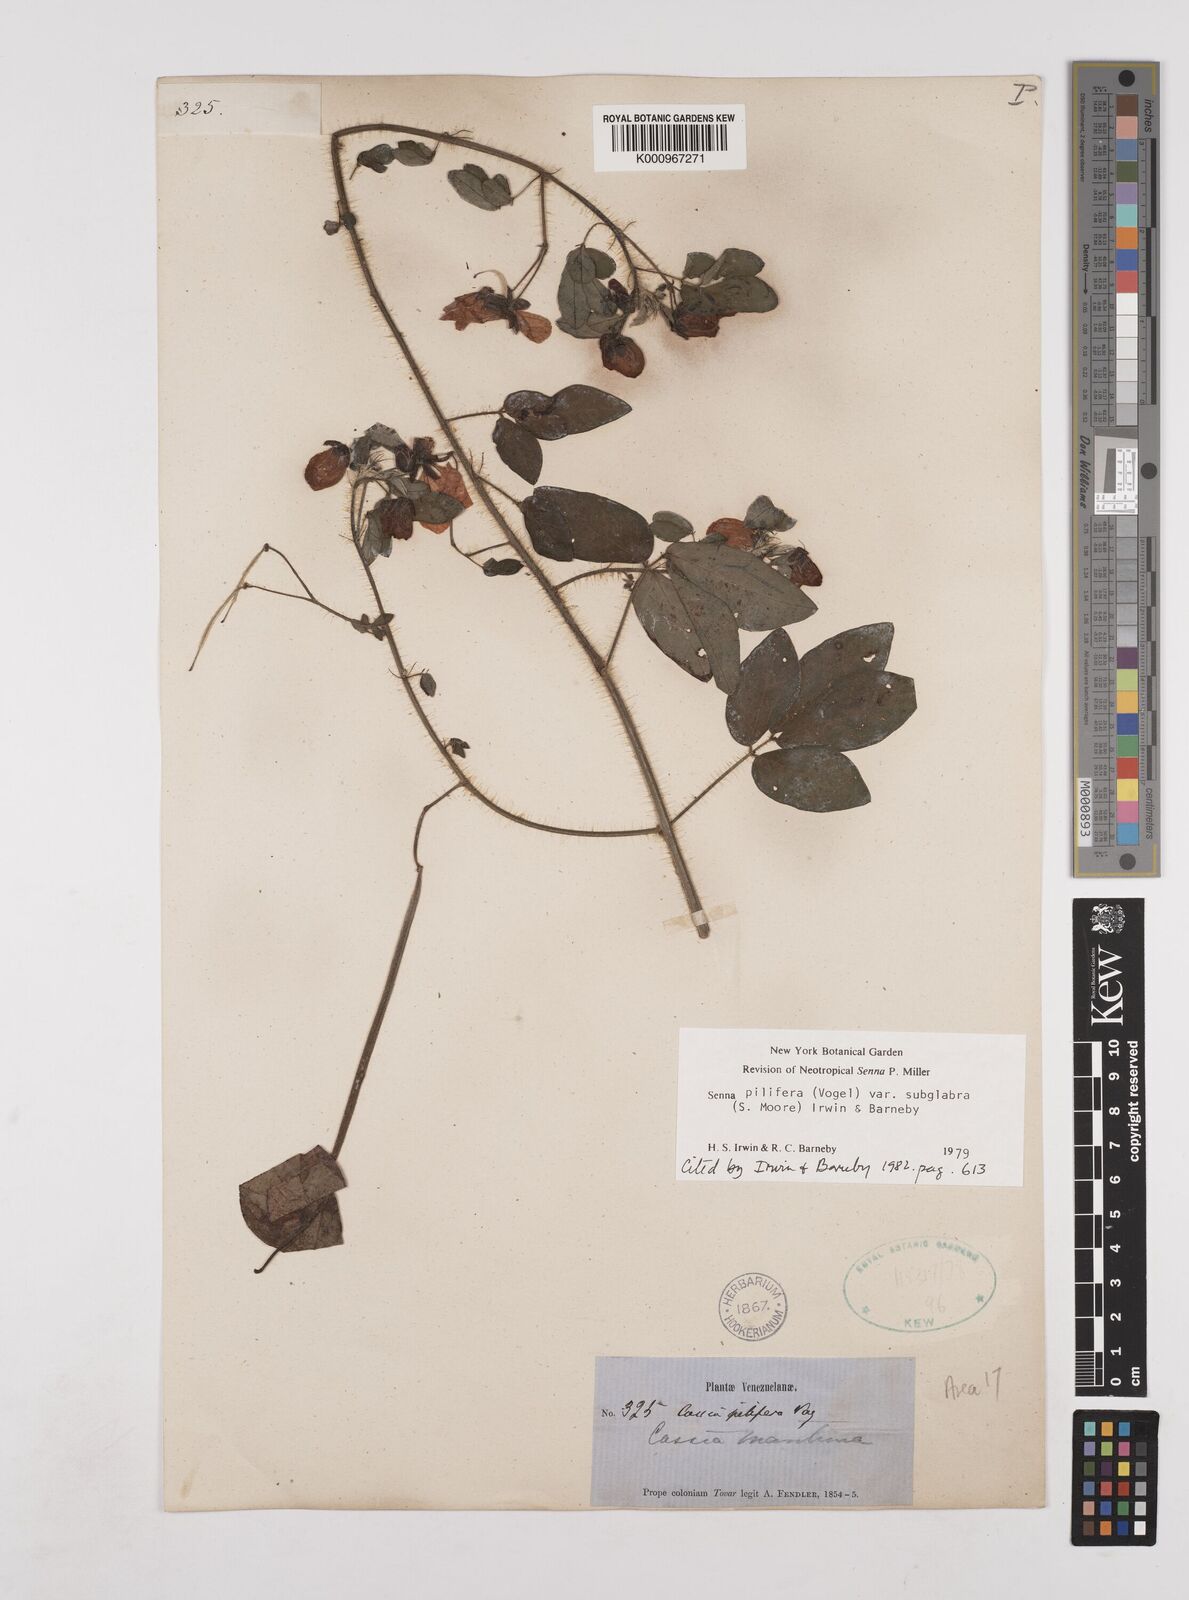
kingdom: Plantae
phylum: Tracheophyta
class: Magnoliopsida
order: Fabales
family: Fabaceae
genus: Senna
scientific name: Senna pilifera
